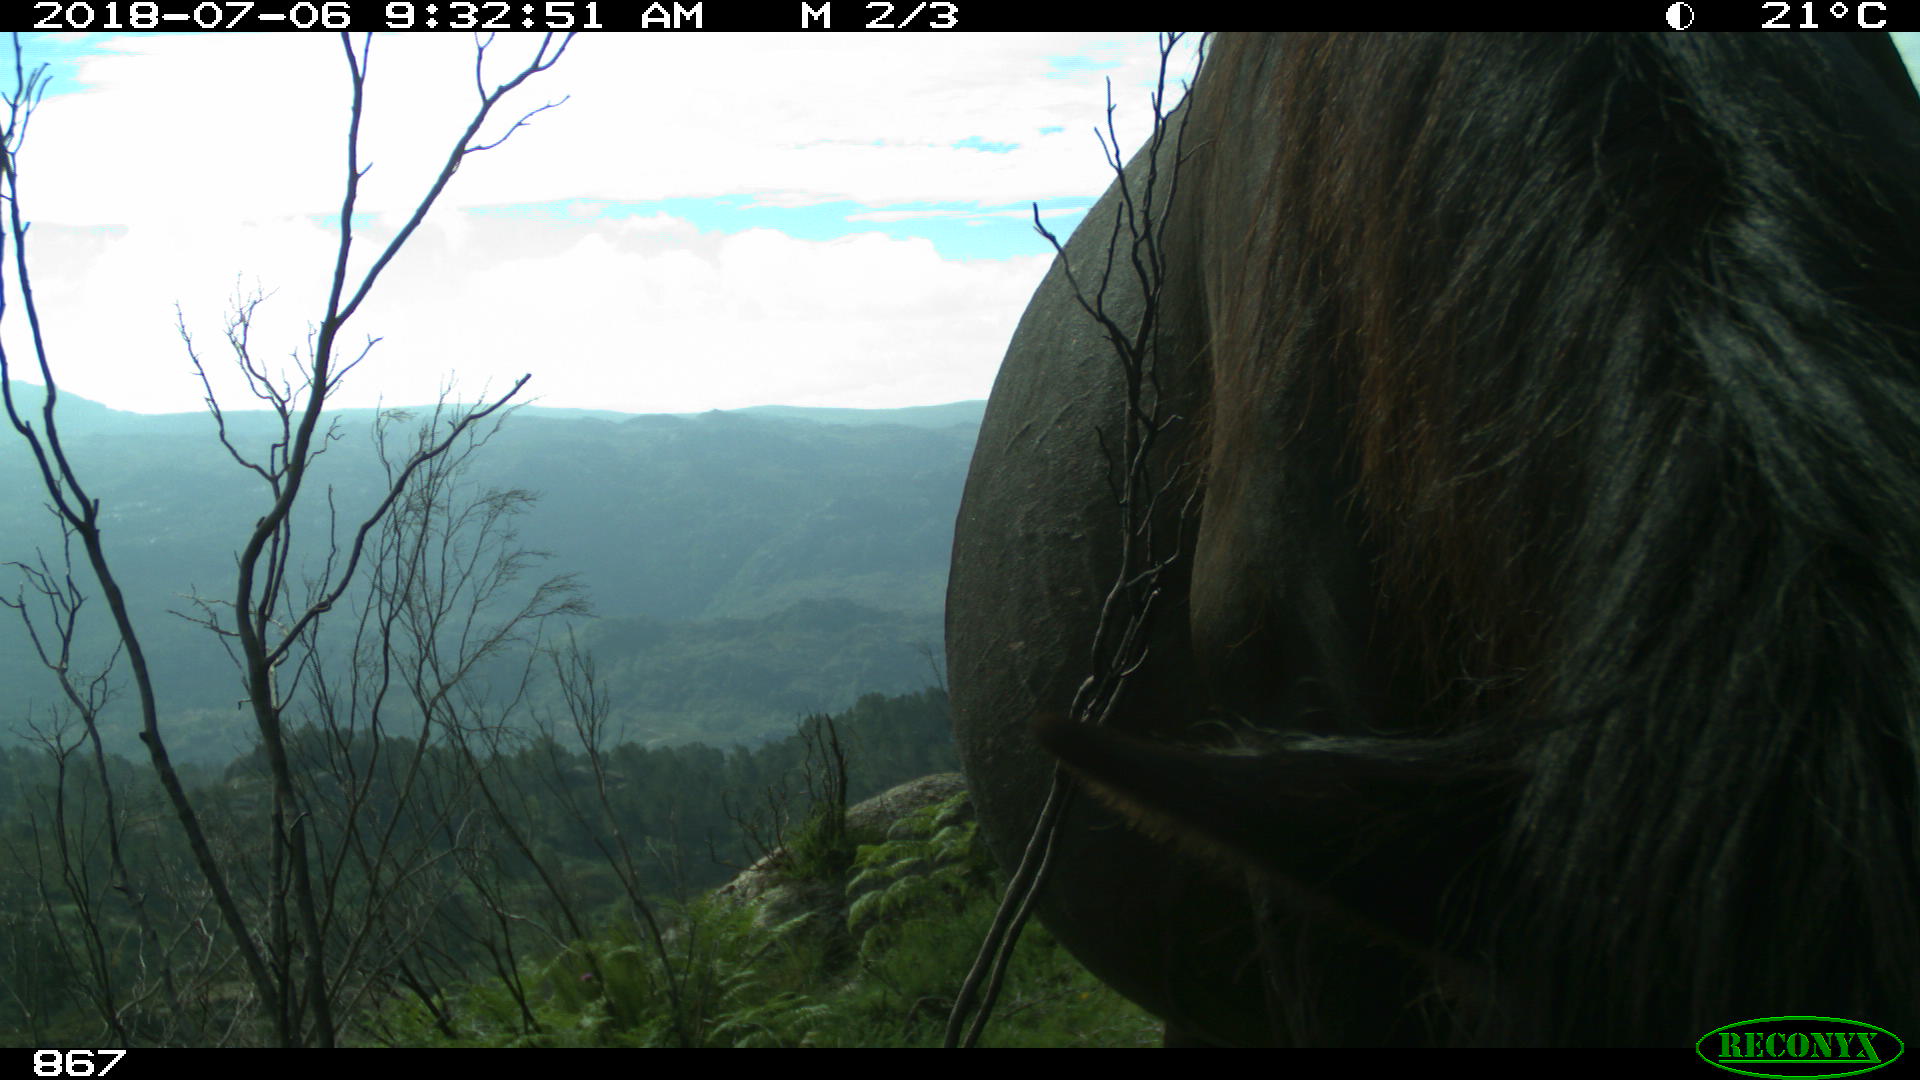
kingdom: Animalia
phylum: Chordata
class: Mammalia
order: Perissodactyla
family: Equidae
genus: Equus
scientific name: Equus caballus
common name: Horse
